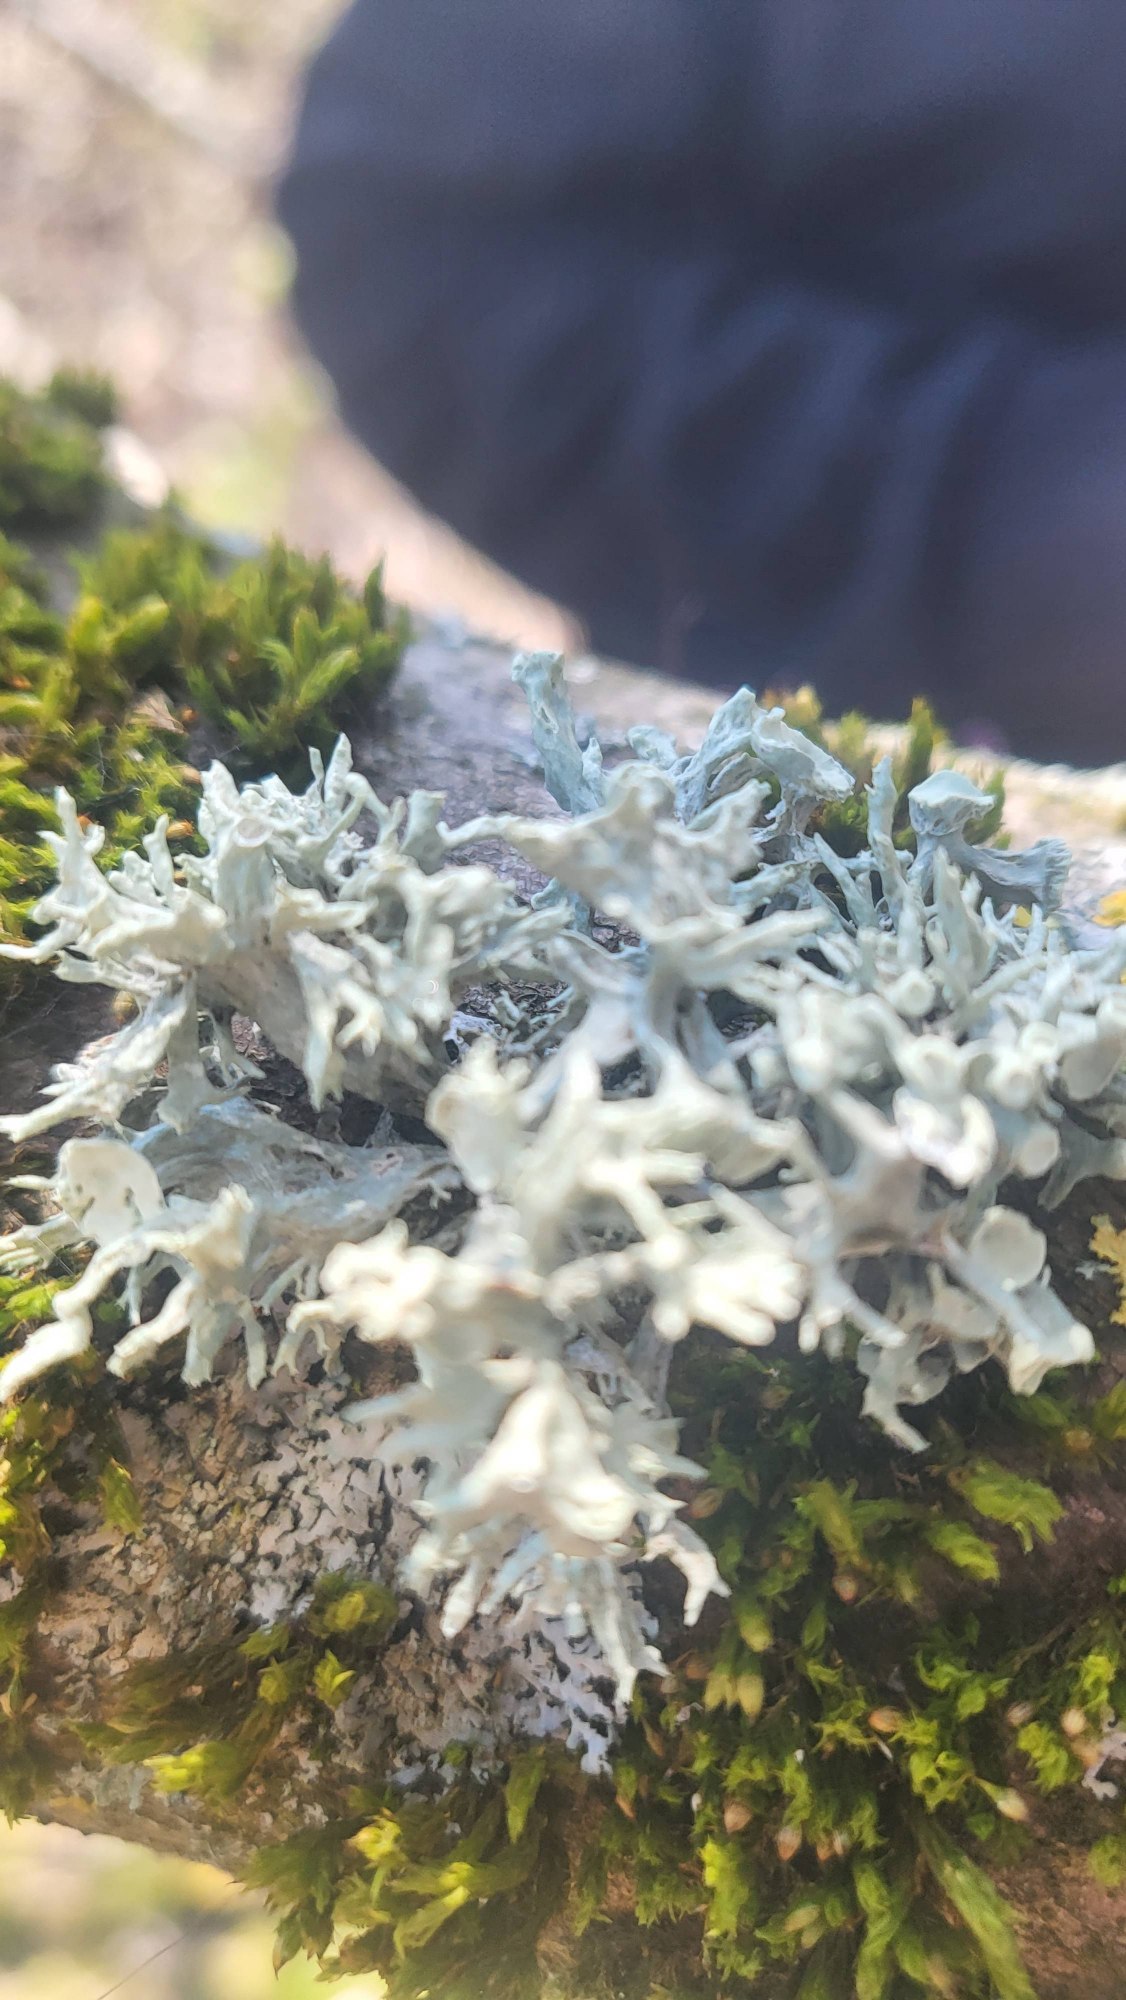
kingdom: Fungi
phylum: Ascomycota
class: Lecanoromycetes
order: Lecanorales
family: Ramalinaceae
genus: Ramalina
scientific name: Ramalina fastigiata
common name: Tue-grenlav
